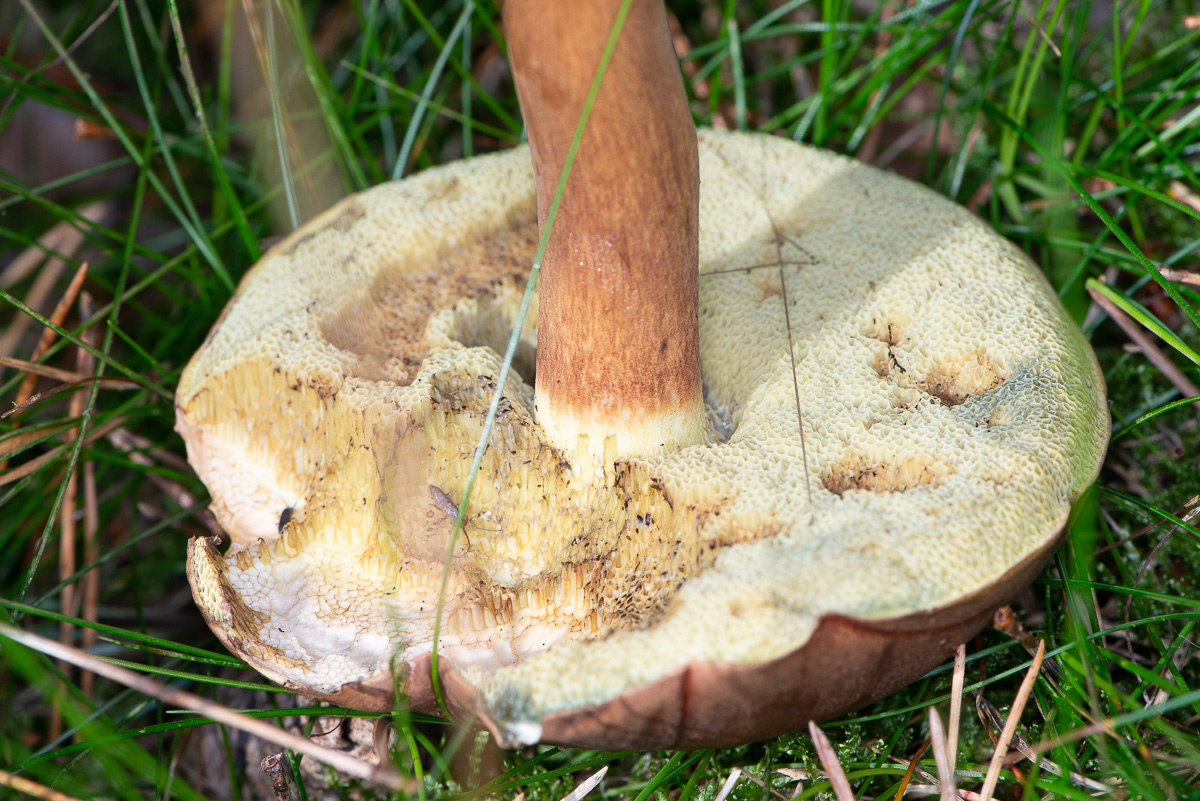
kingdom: Fungi
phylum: Basidiomycota
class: Agaricomycetes
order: Boletales
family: Boletaceae
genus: Imleria
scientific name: Imleria badia
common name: brunstokket rørhat
